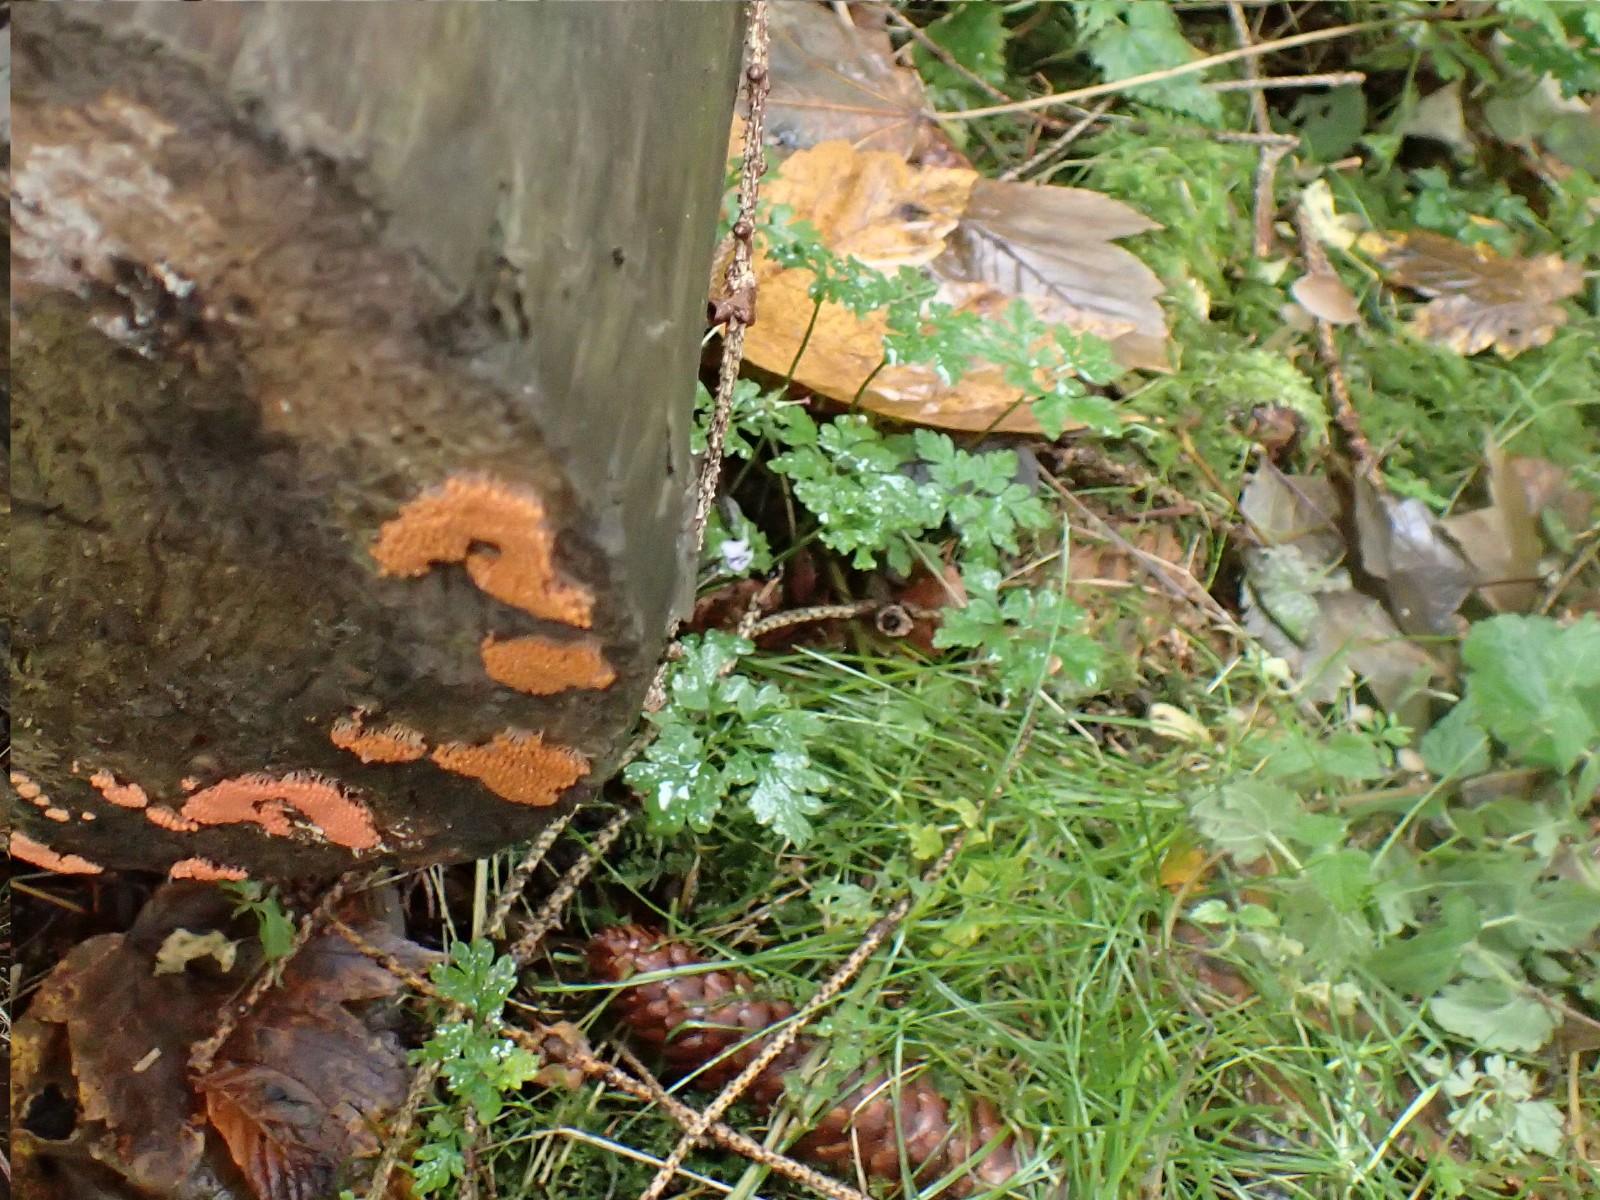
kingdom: Protozoa
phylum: Mycetozoa
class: Myxomycetes
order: Cribrariales
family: Tubiferaceae
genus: Tubifera
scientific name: Tubifera ferruginosa
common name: kanel-støvrør
